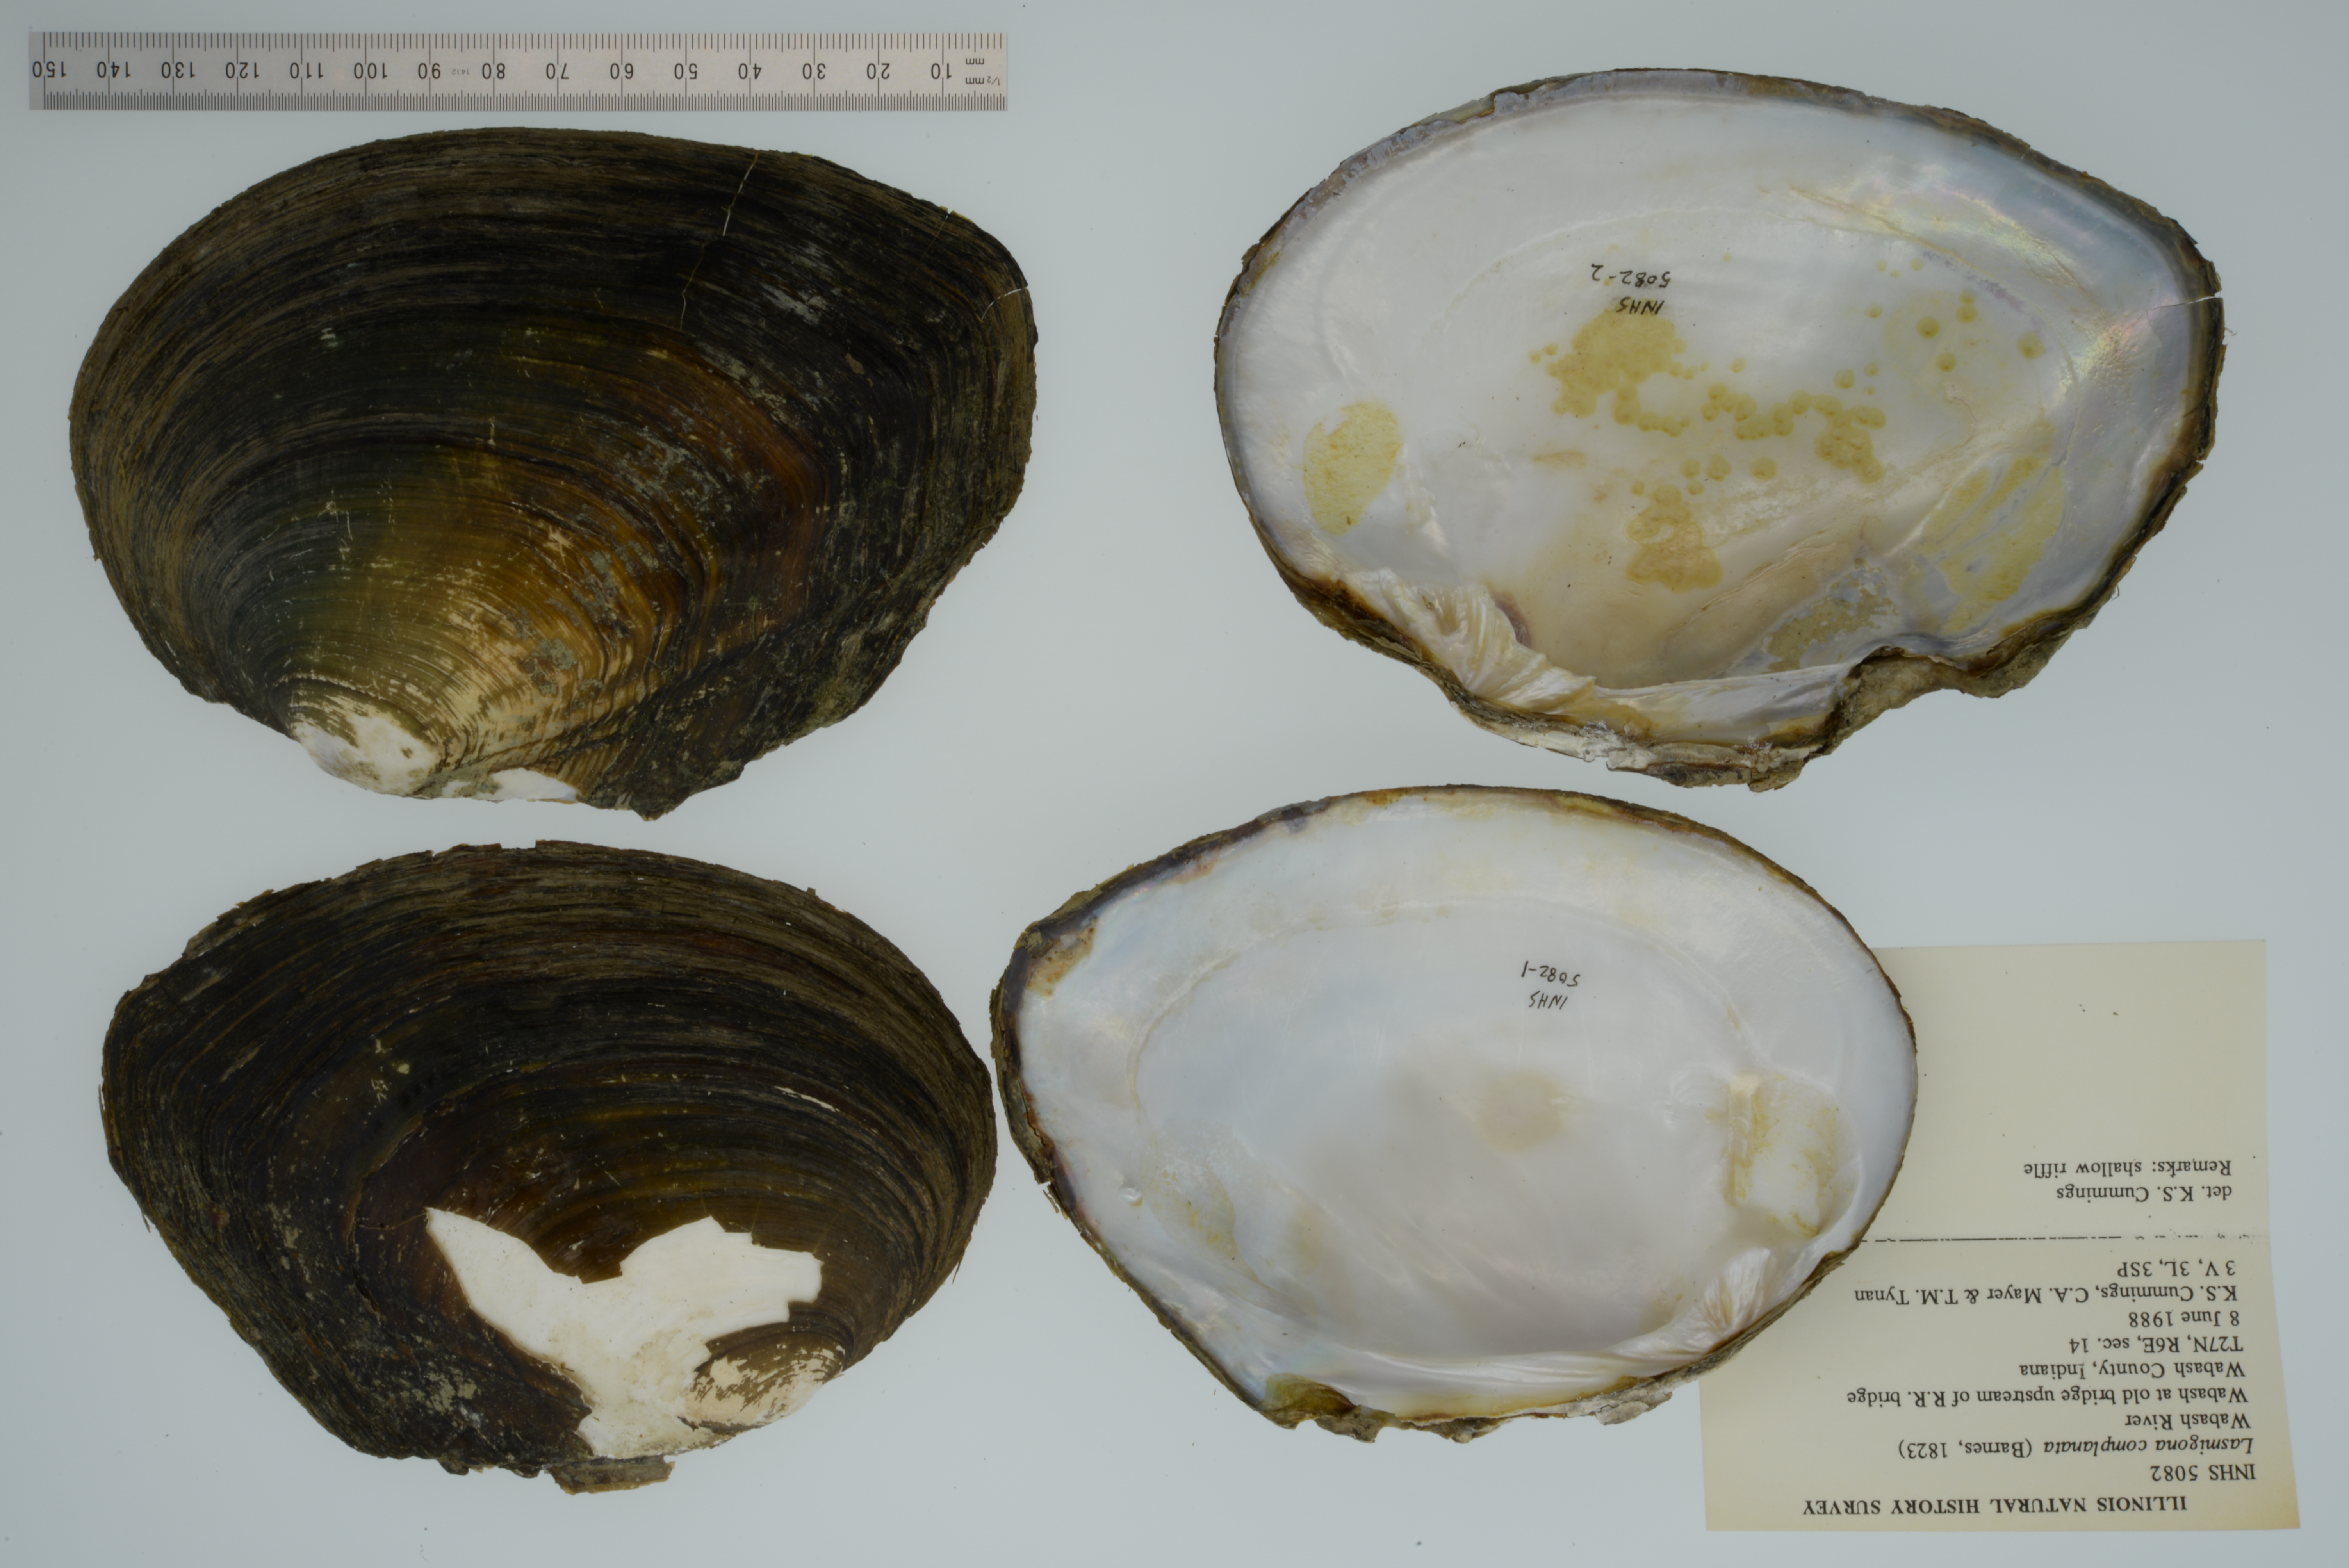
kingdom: Animalia
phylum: Mollusca
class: Bivalvia
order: Unionida
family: Unionidae
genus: Lasmigona
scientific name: Lasmigona complanata
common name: White heelsplitter
